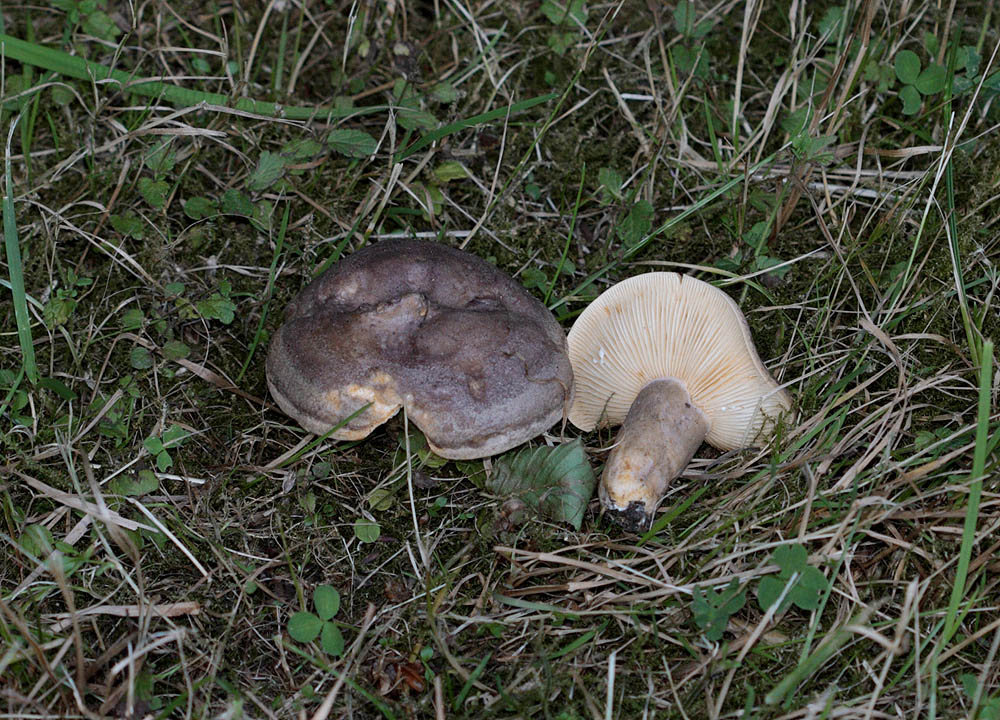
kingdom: Fungi
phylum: Basidiomycota
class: Agaricomycetes
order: Russulales
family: Russulaceae
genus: Lactarius
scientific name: Lactarius circellatus
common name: avnbøg-mælkehat
